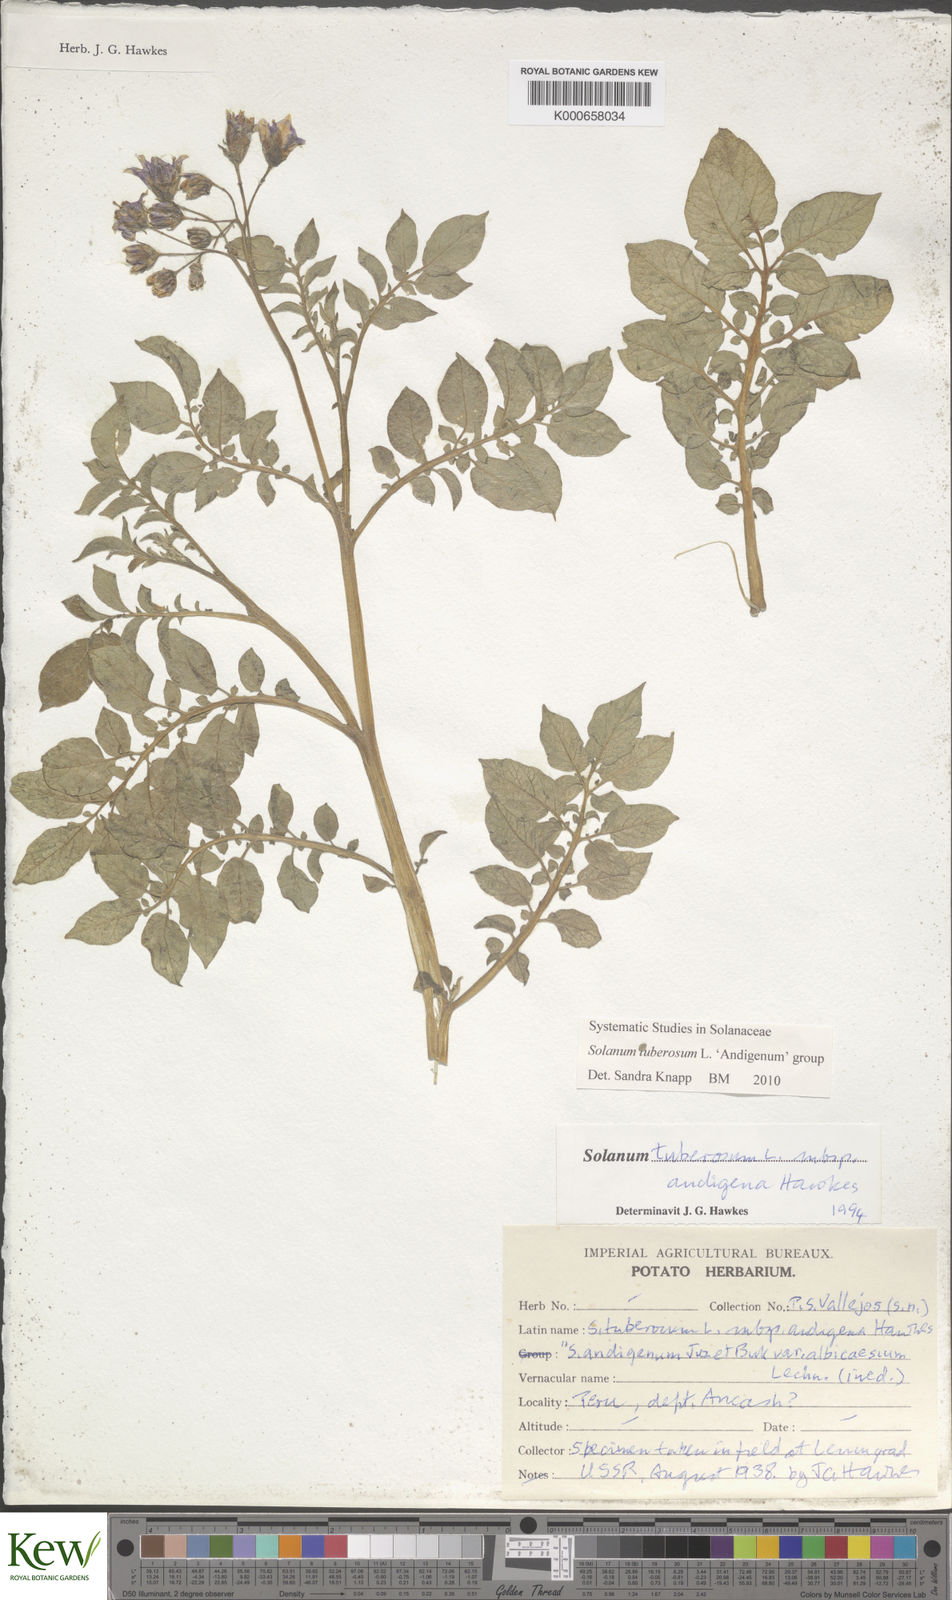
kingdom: Plantae
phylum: Tracheophyta
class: Magnoliopsida
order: Solanales
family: Solanaceae
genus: Solanum
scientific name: Solanum tuberosum
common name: Potato
